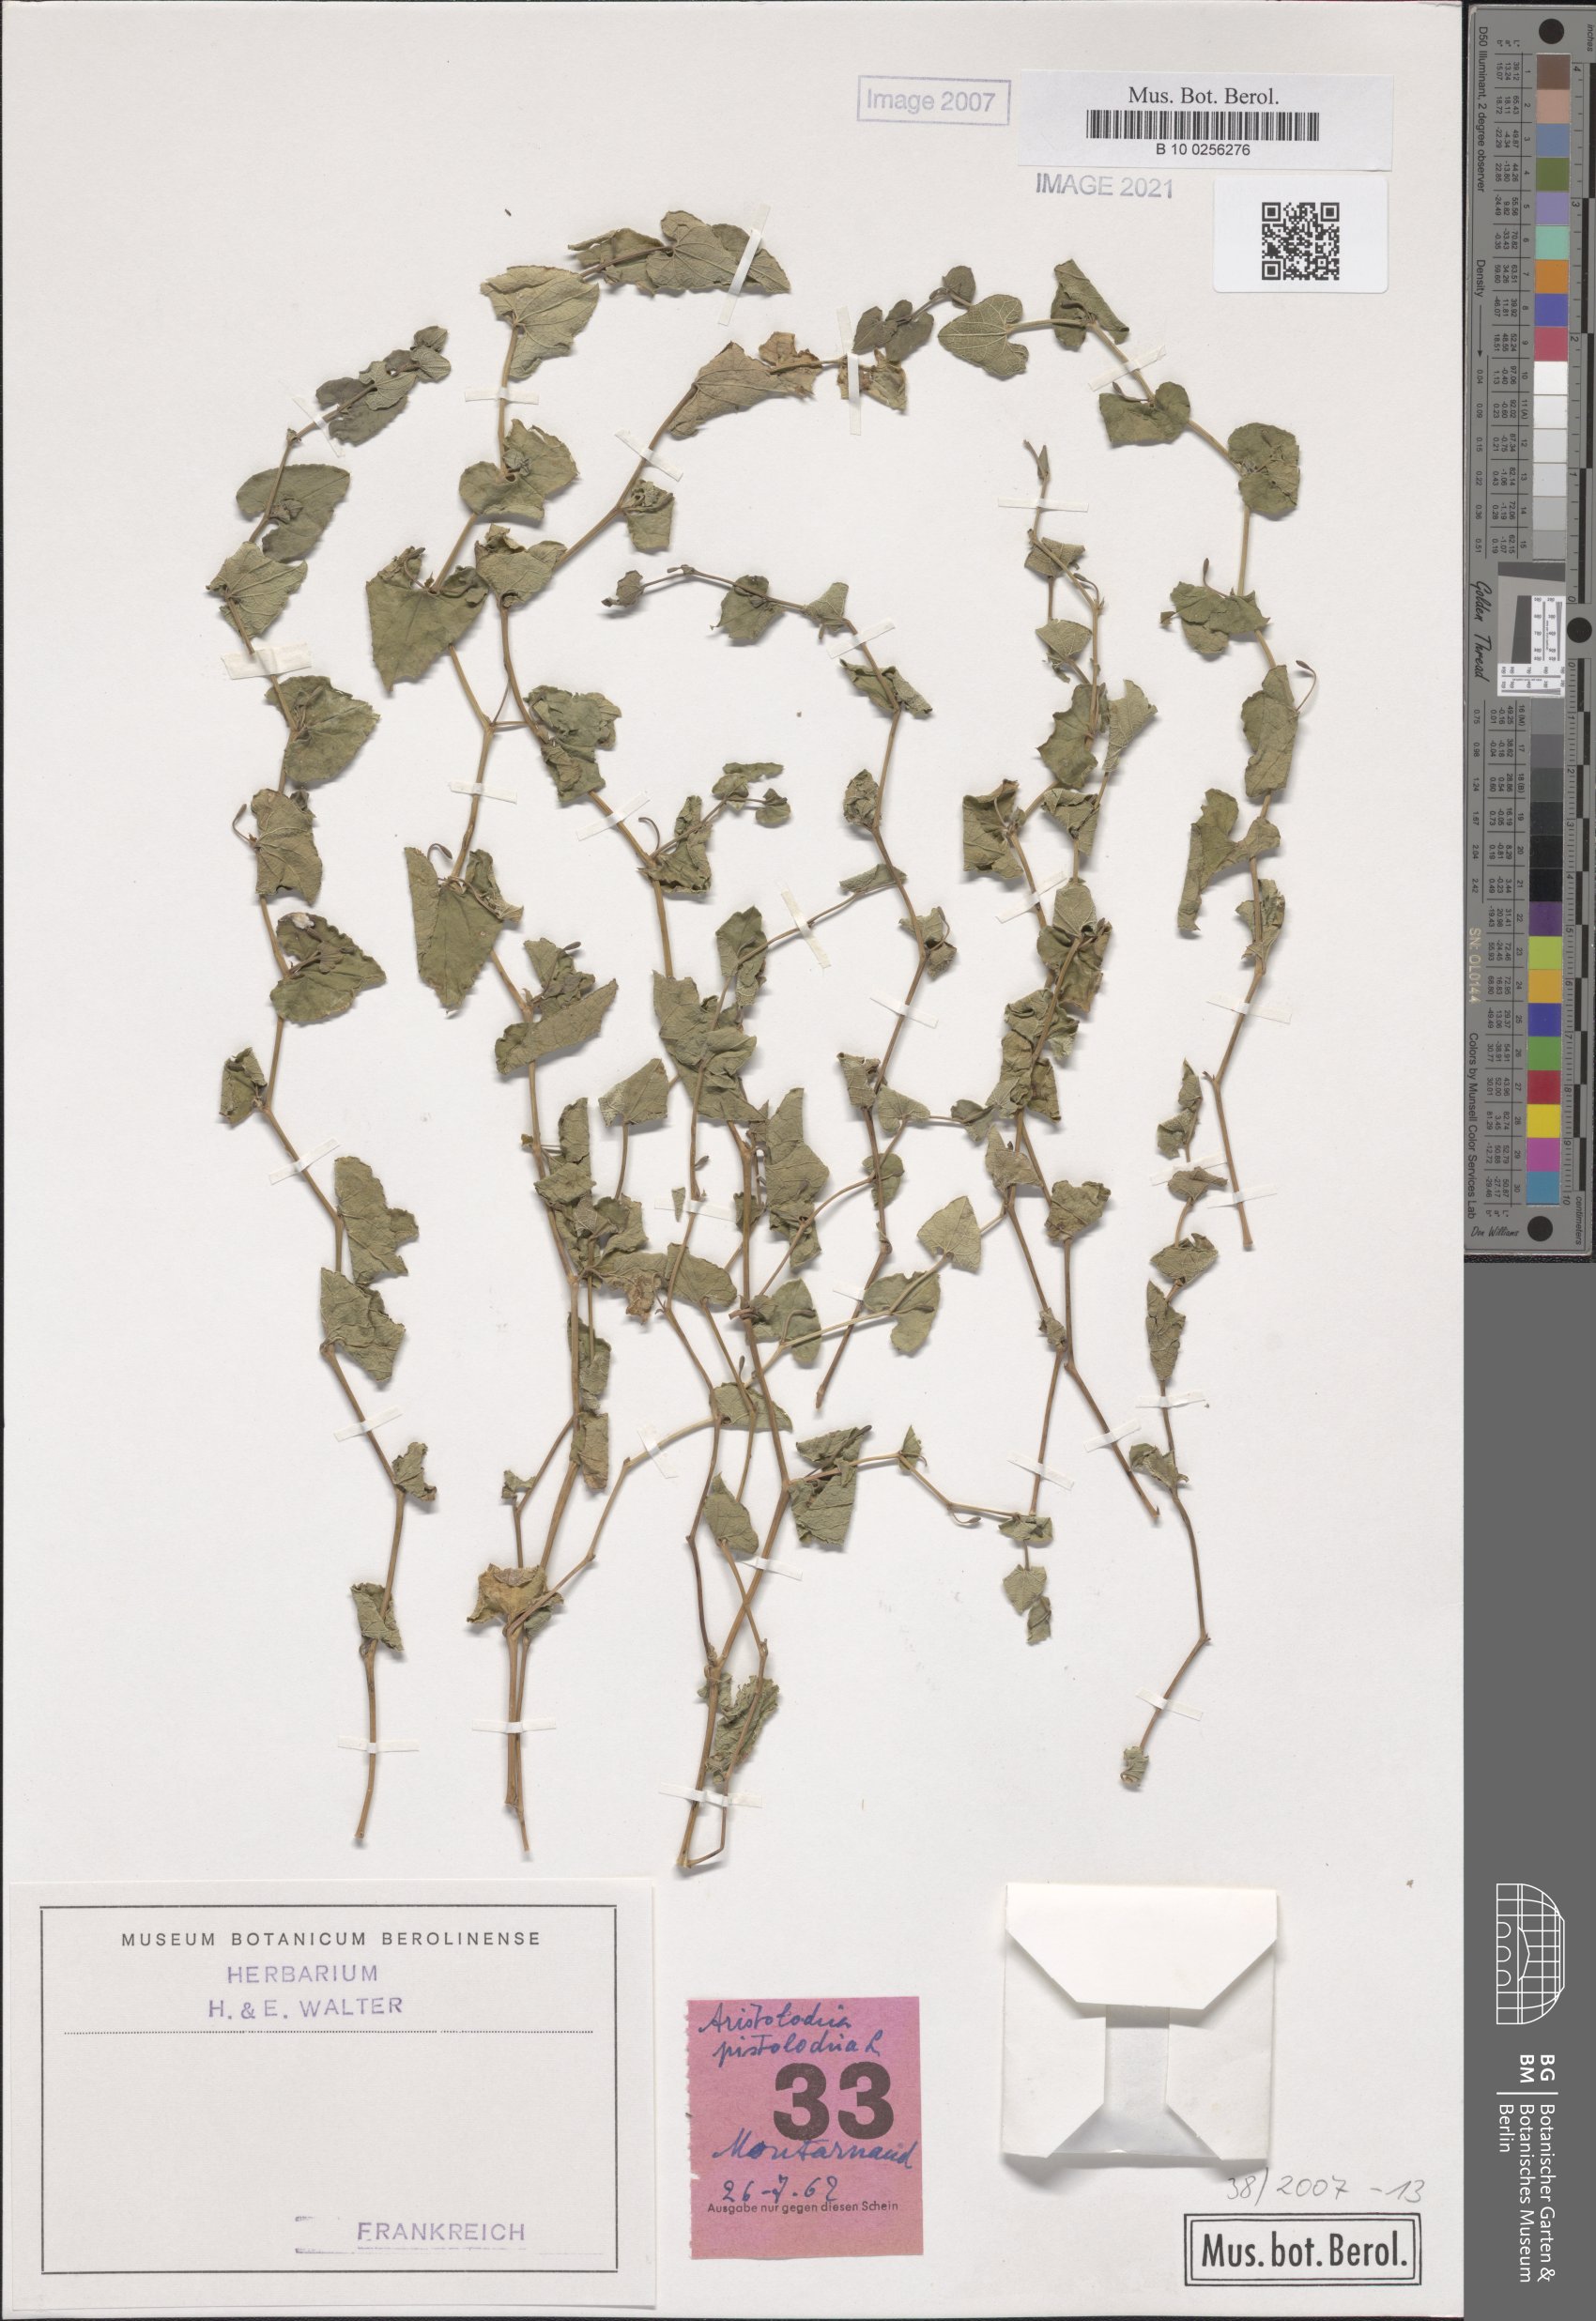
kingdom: Plantae
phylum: Tracheophyta
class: Magnoliopsida
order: Piperales
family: Aristolochiaceae
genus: Aristolochia
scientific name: Aristolochia pistolochia
